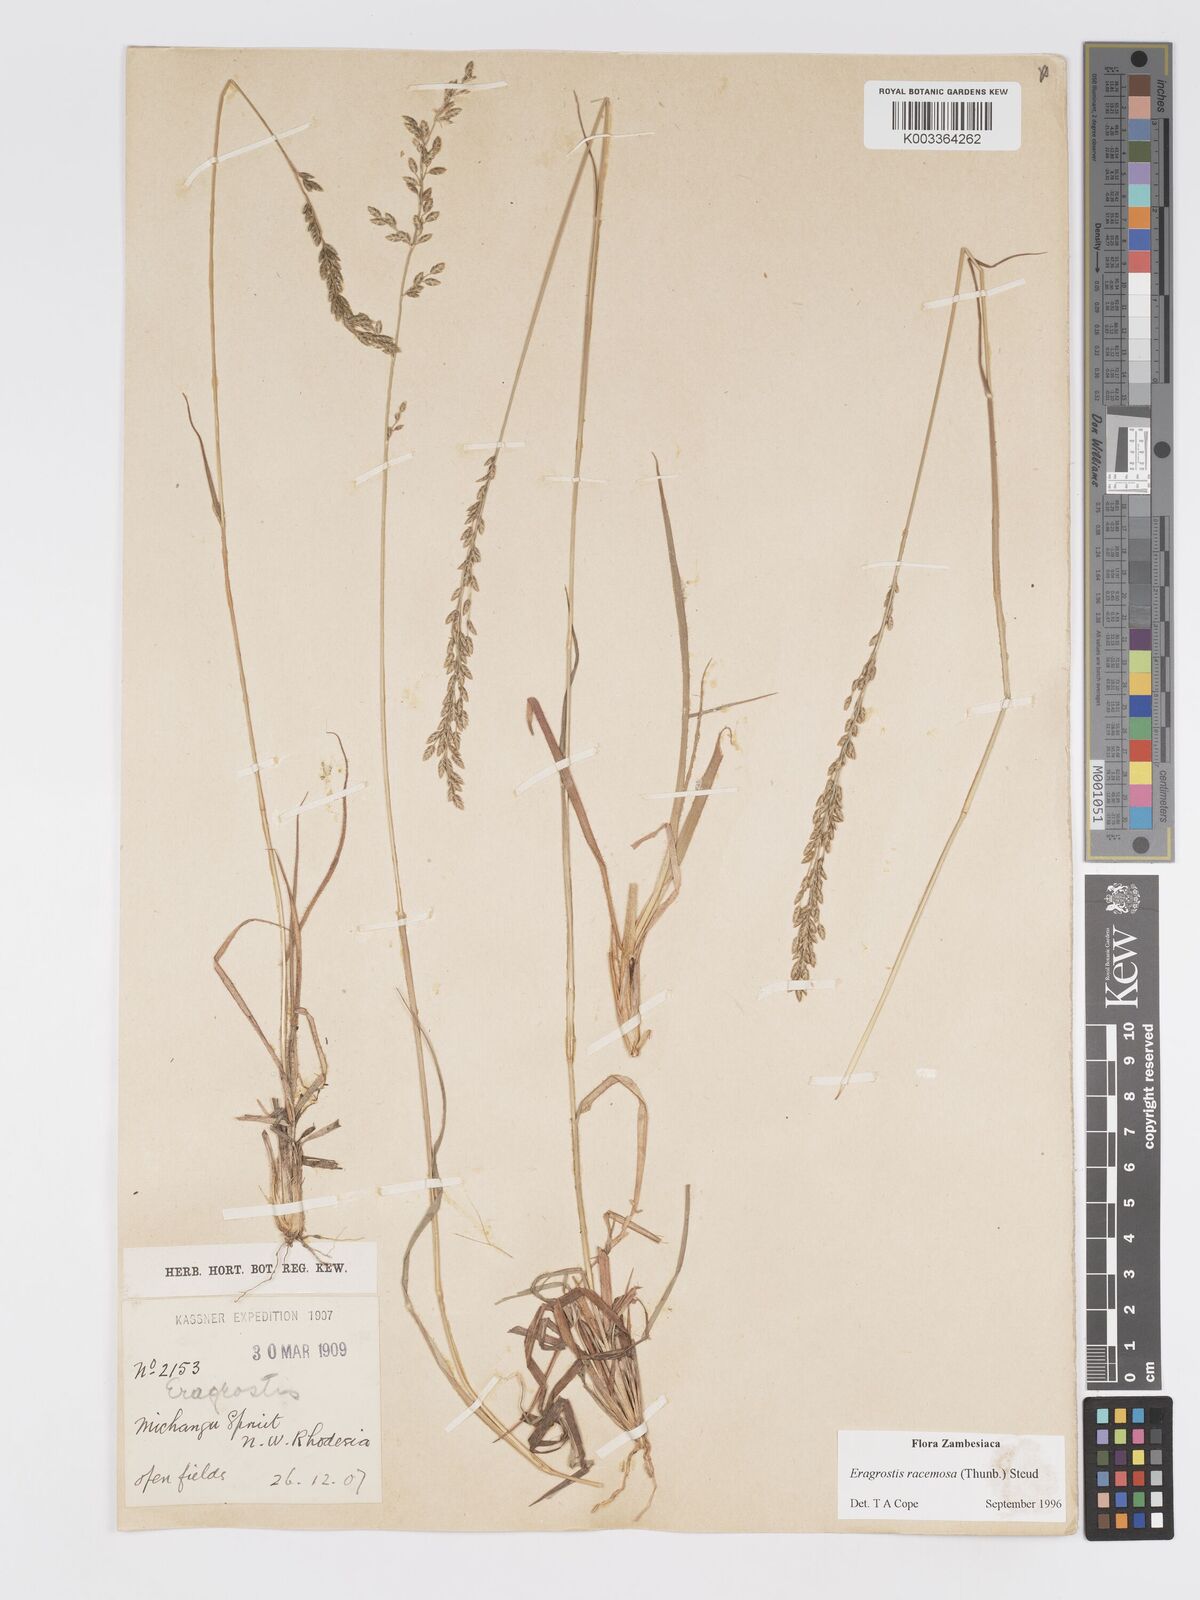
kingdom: Plantae
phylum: Tracheophyta
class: Liliopsida
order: Poales
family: Poaceae
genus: Eragrostis
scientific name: Eragrostis racemosa
